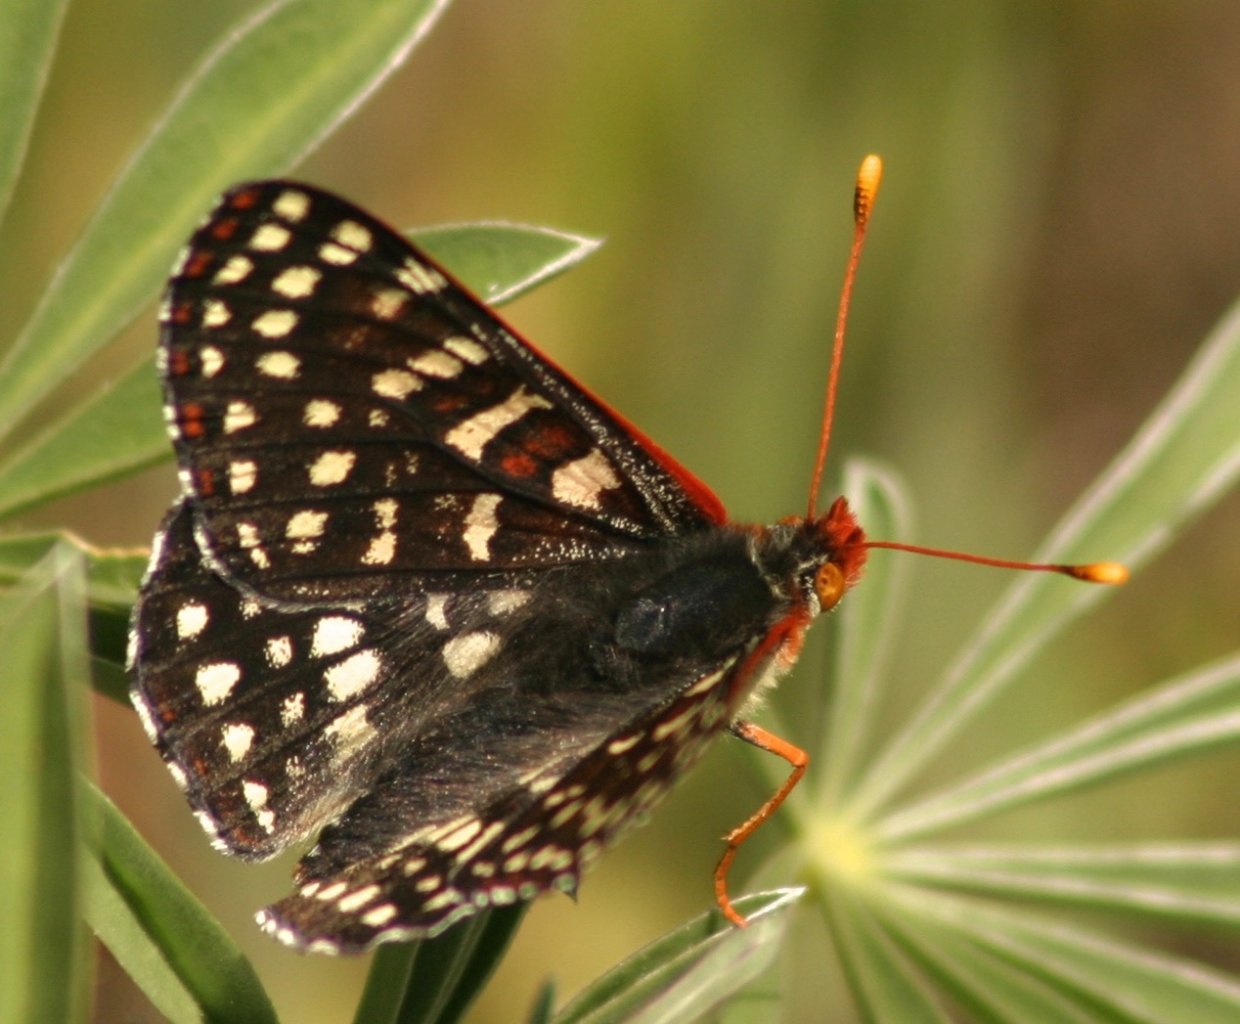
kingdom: Animalia
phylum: Arthropoda
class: Insecta
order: Lepidoptera
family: Nymphalidae
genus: Occidryas
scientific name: Occidryas chalcedona
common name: Chalcedon Checkerspot
